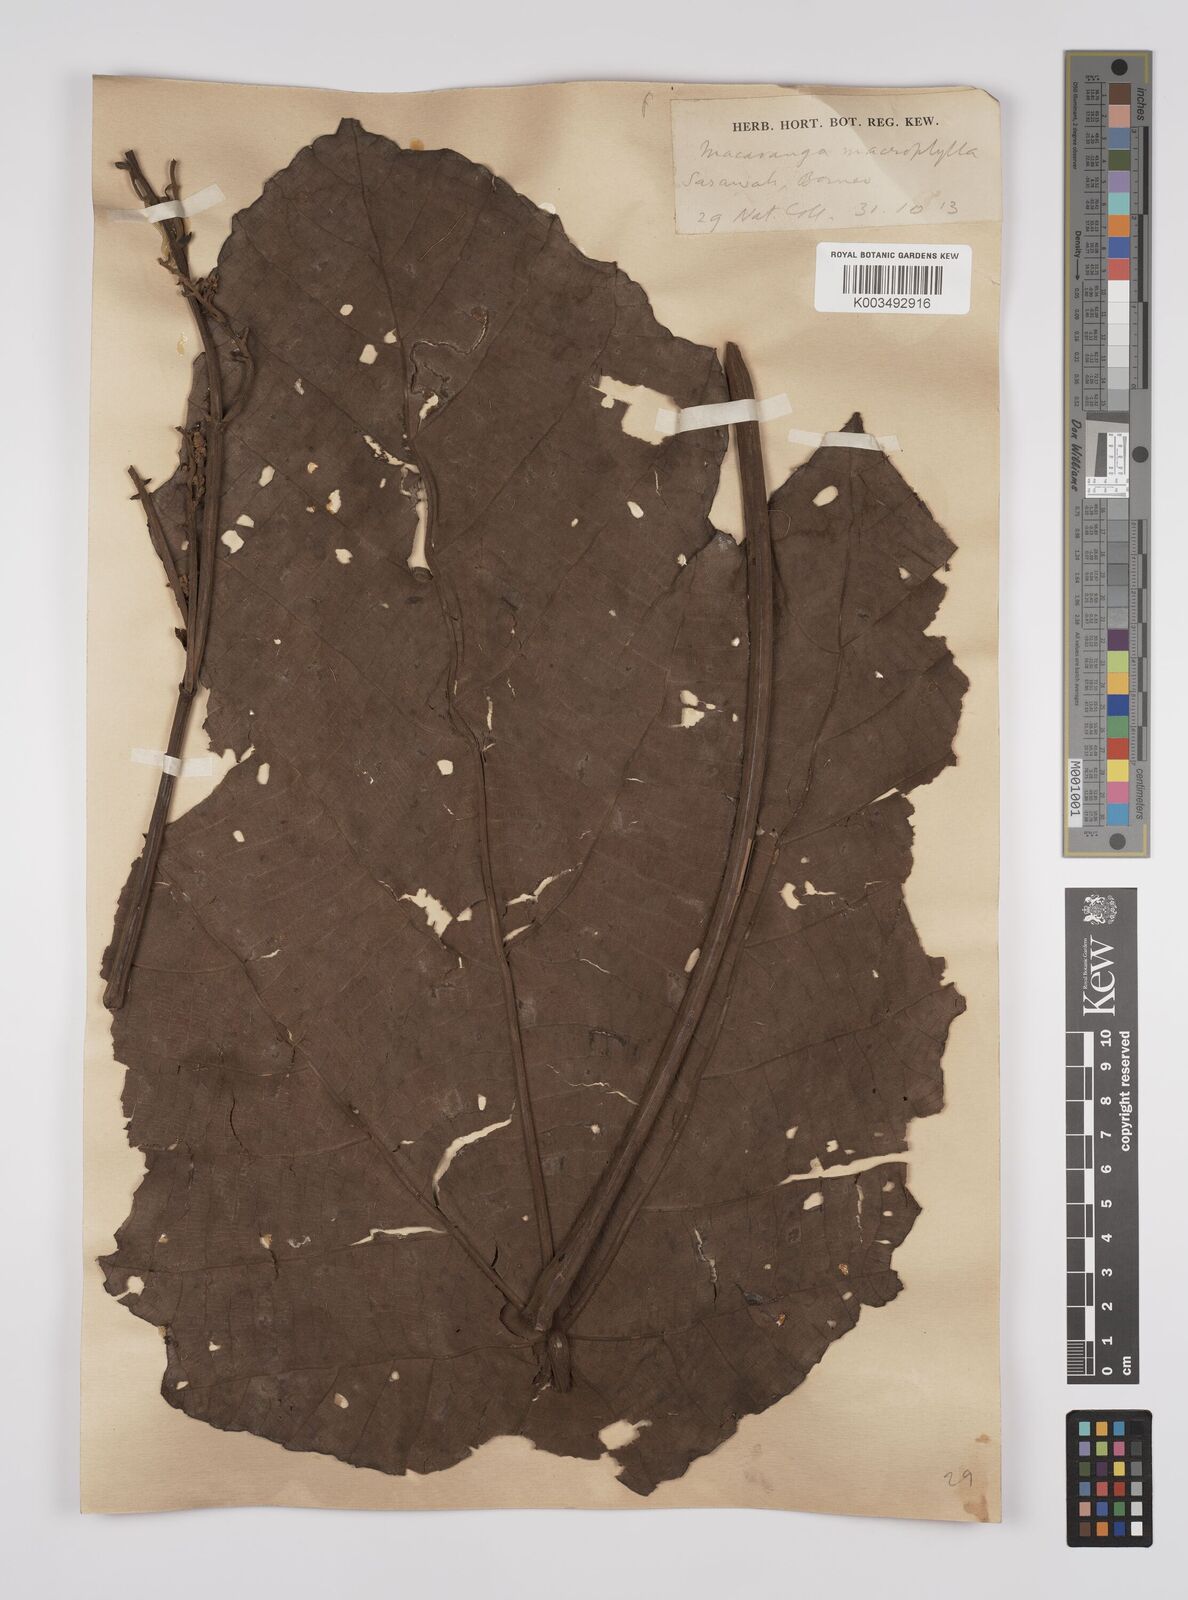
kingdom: Plantae
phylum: Tracheophyta
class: Magnoliopsida
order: Malpighiales
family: Euphorbiaceae
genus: Macaranga
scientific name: Macaranga gigantea
